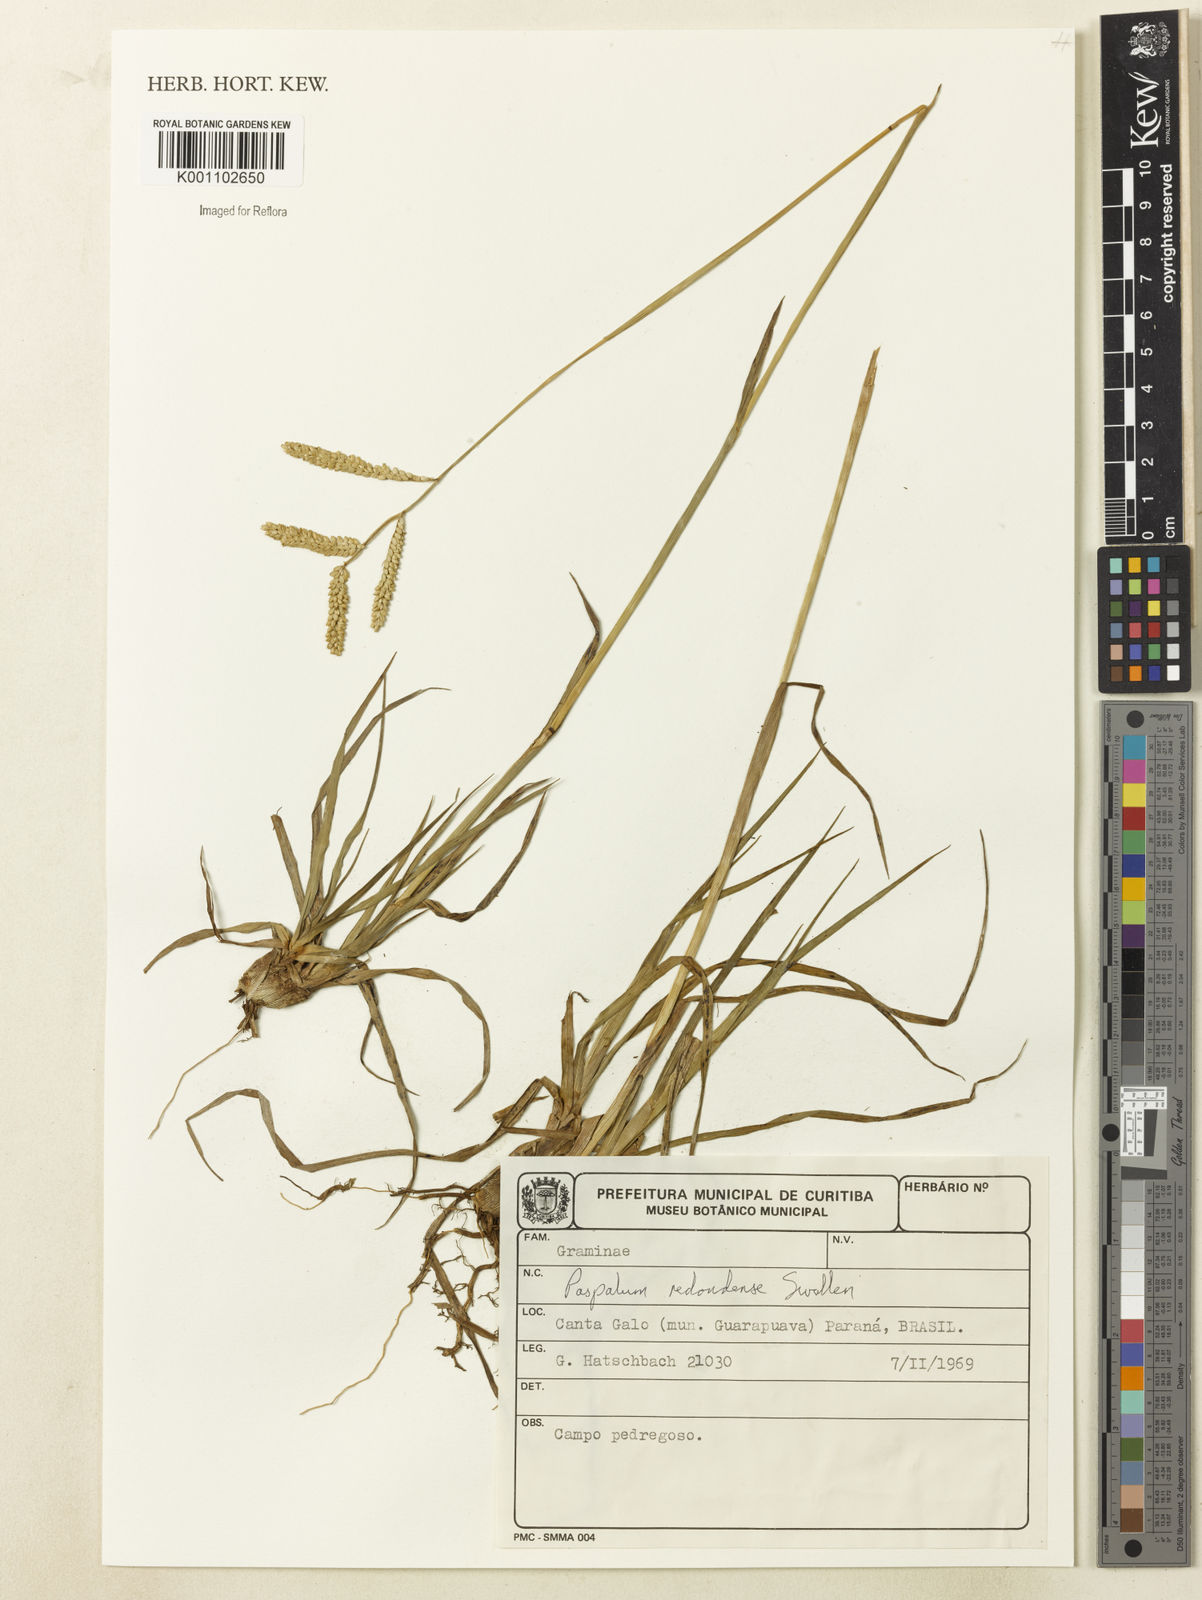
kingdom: Plantae
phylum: Tracheophyta
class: Liliopsida
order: Poales
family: Poaceae
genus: Paspalum
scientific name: Paspalum redondense
